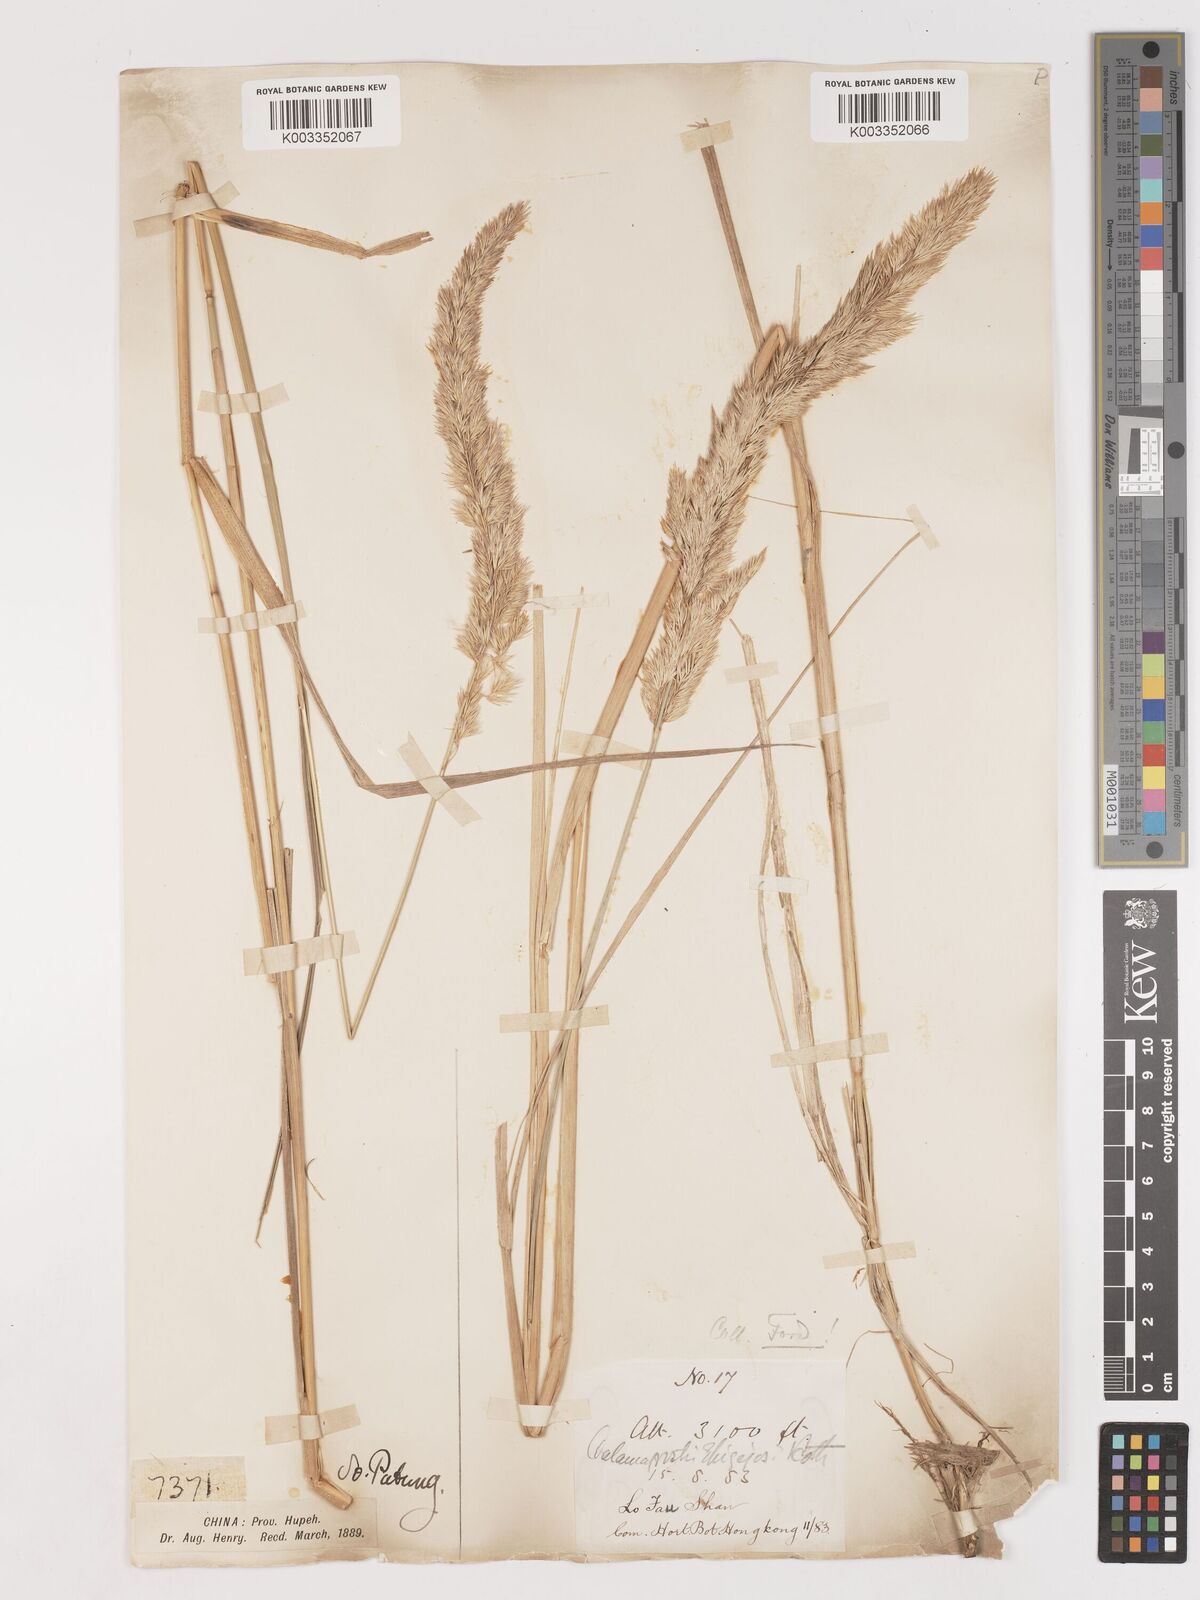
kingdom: Plantae
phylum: Tracheophyta
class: Liliopsida
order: Poales
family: Poaceae
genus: Calamagrostis
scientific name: Calamagrostis epigejos
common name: Wood small-reed
